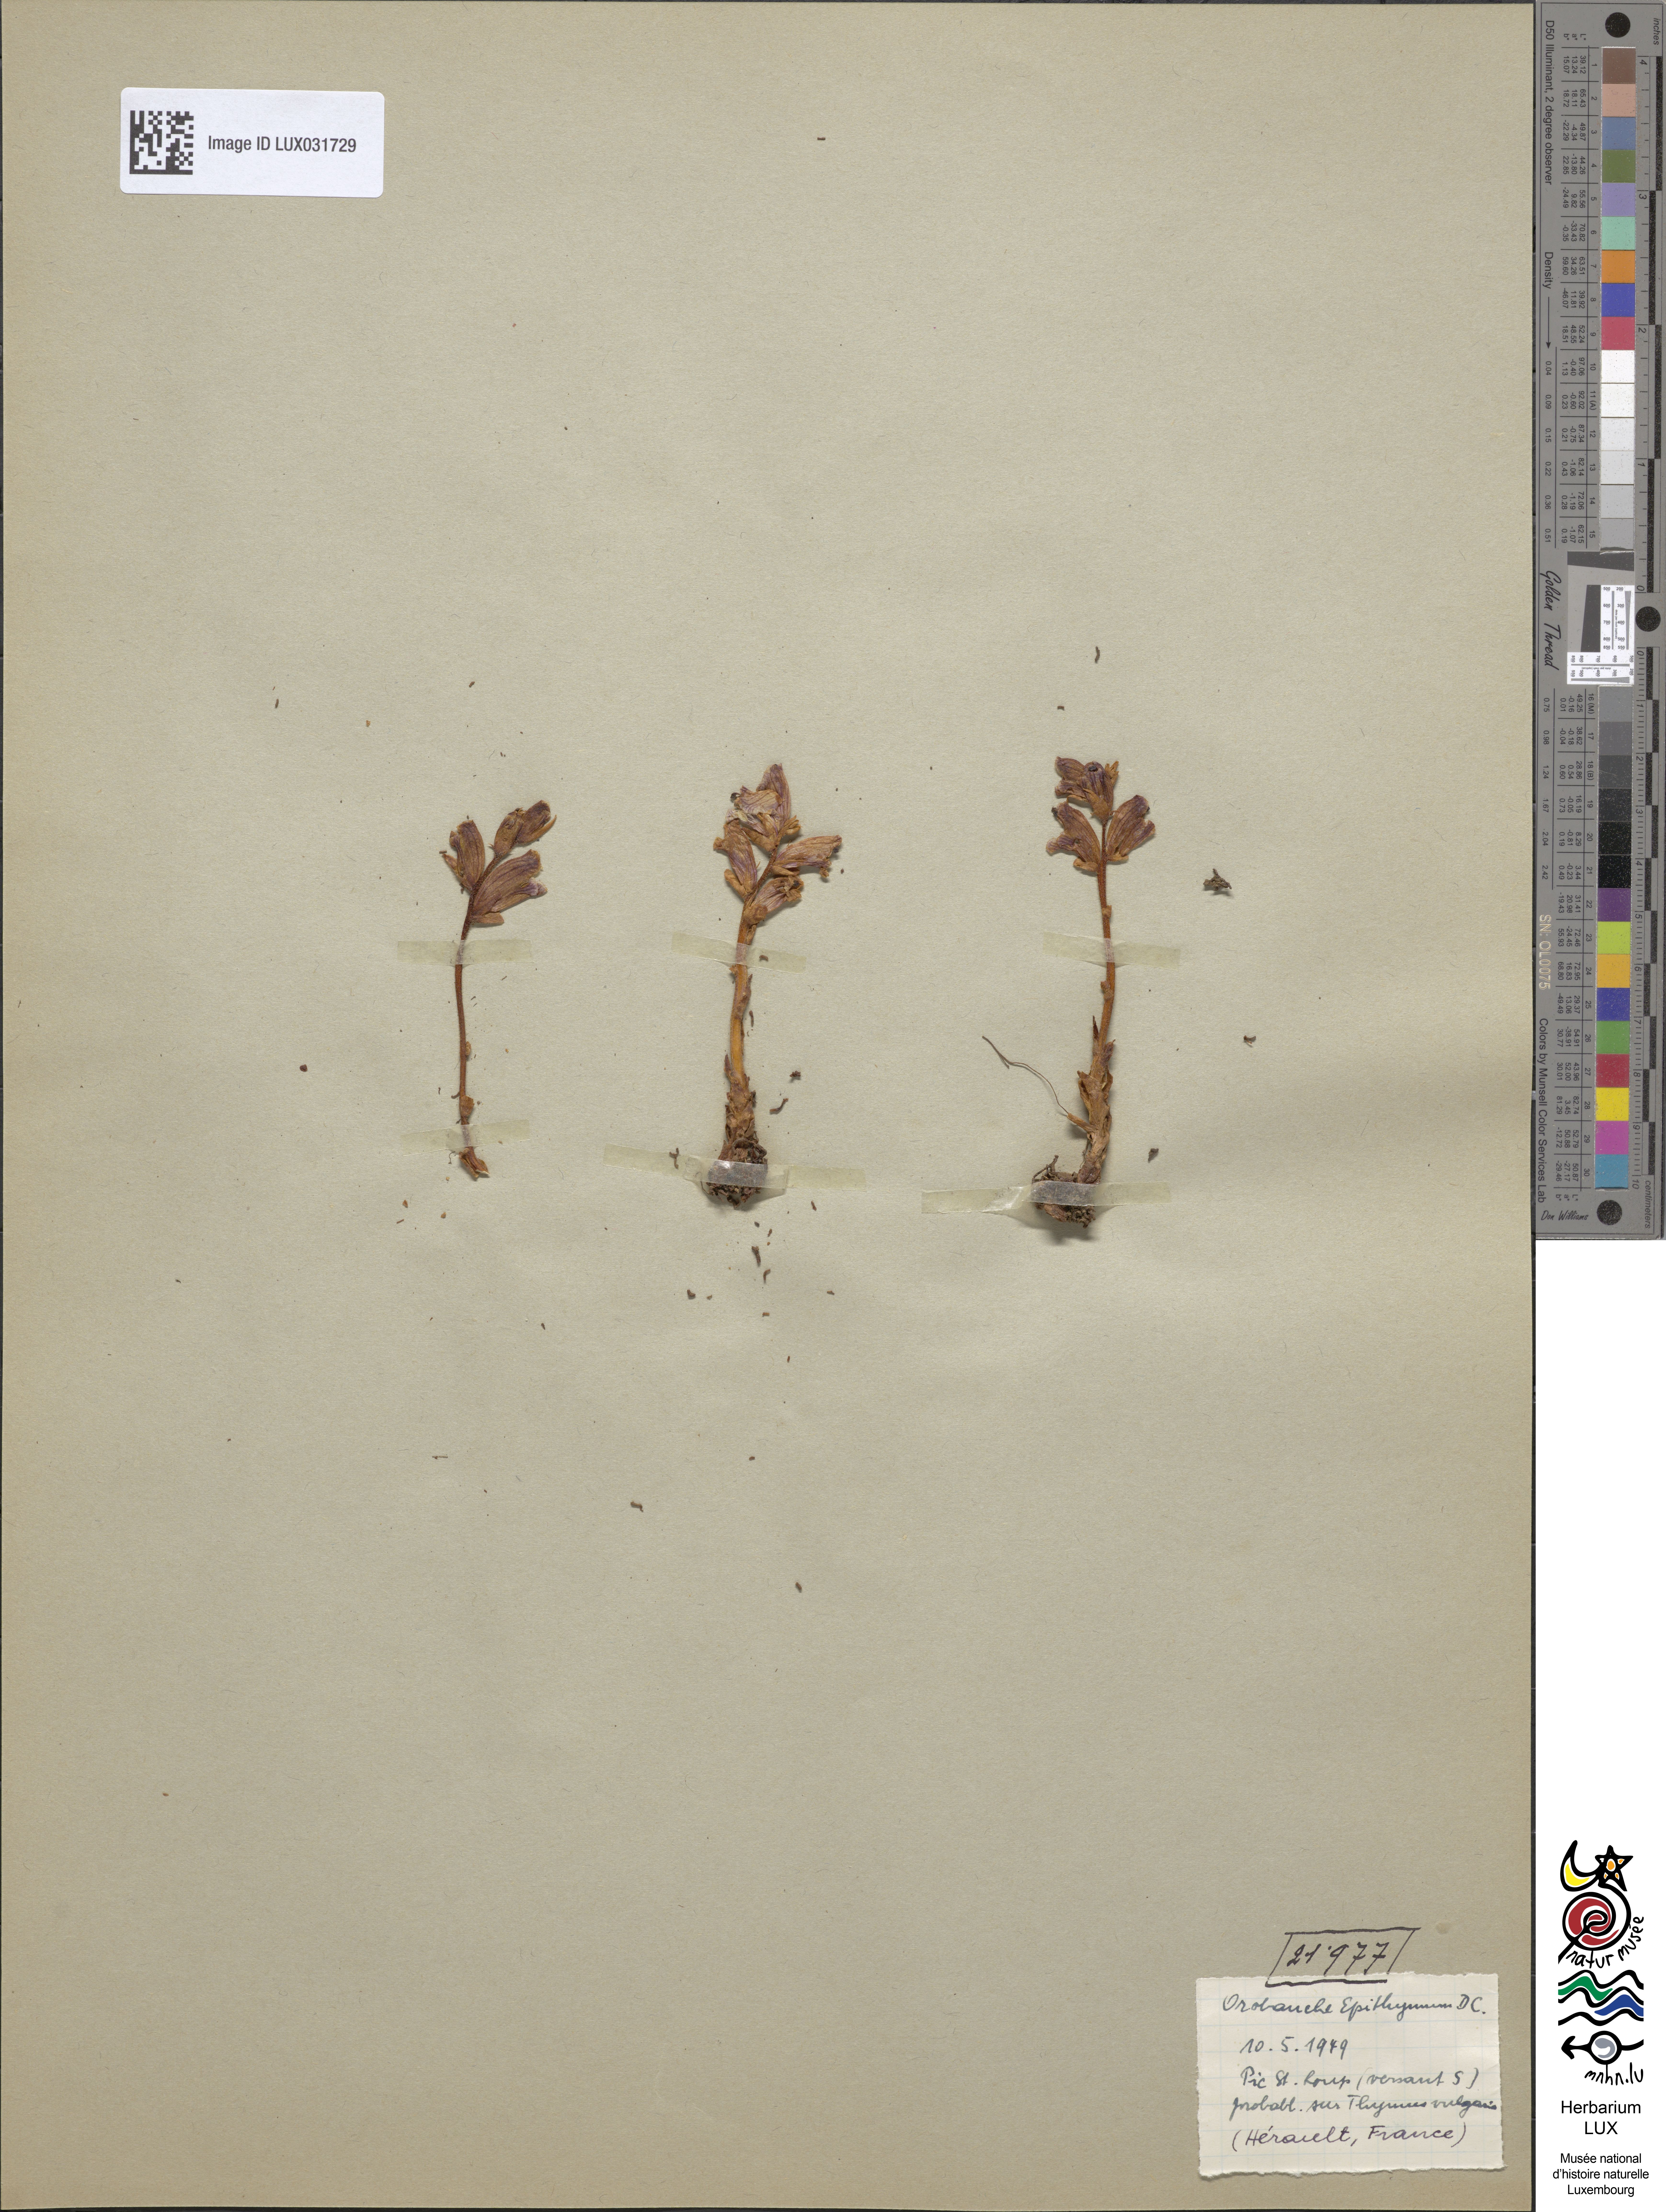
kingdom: Plantae
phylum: Tracheophyta
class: Magnoliopsida
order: Lamiales
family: Orobanchaceae
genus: Orobanche
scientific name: Orobanche alba
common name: Thyme broomrape
